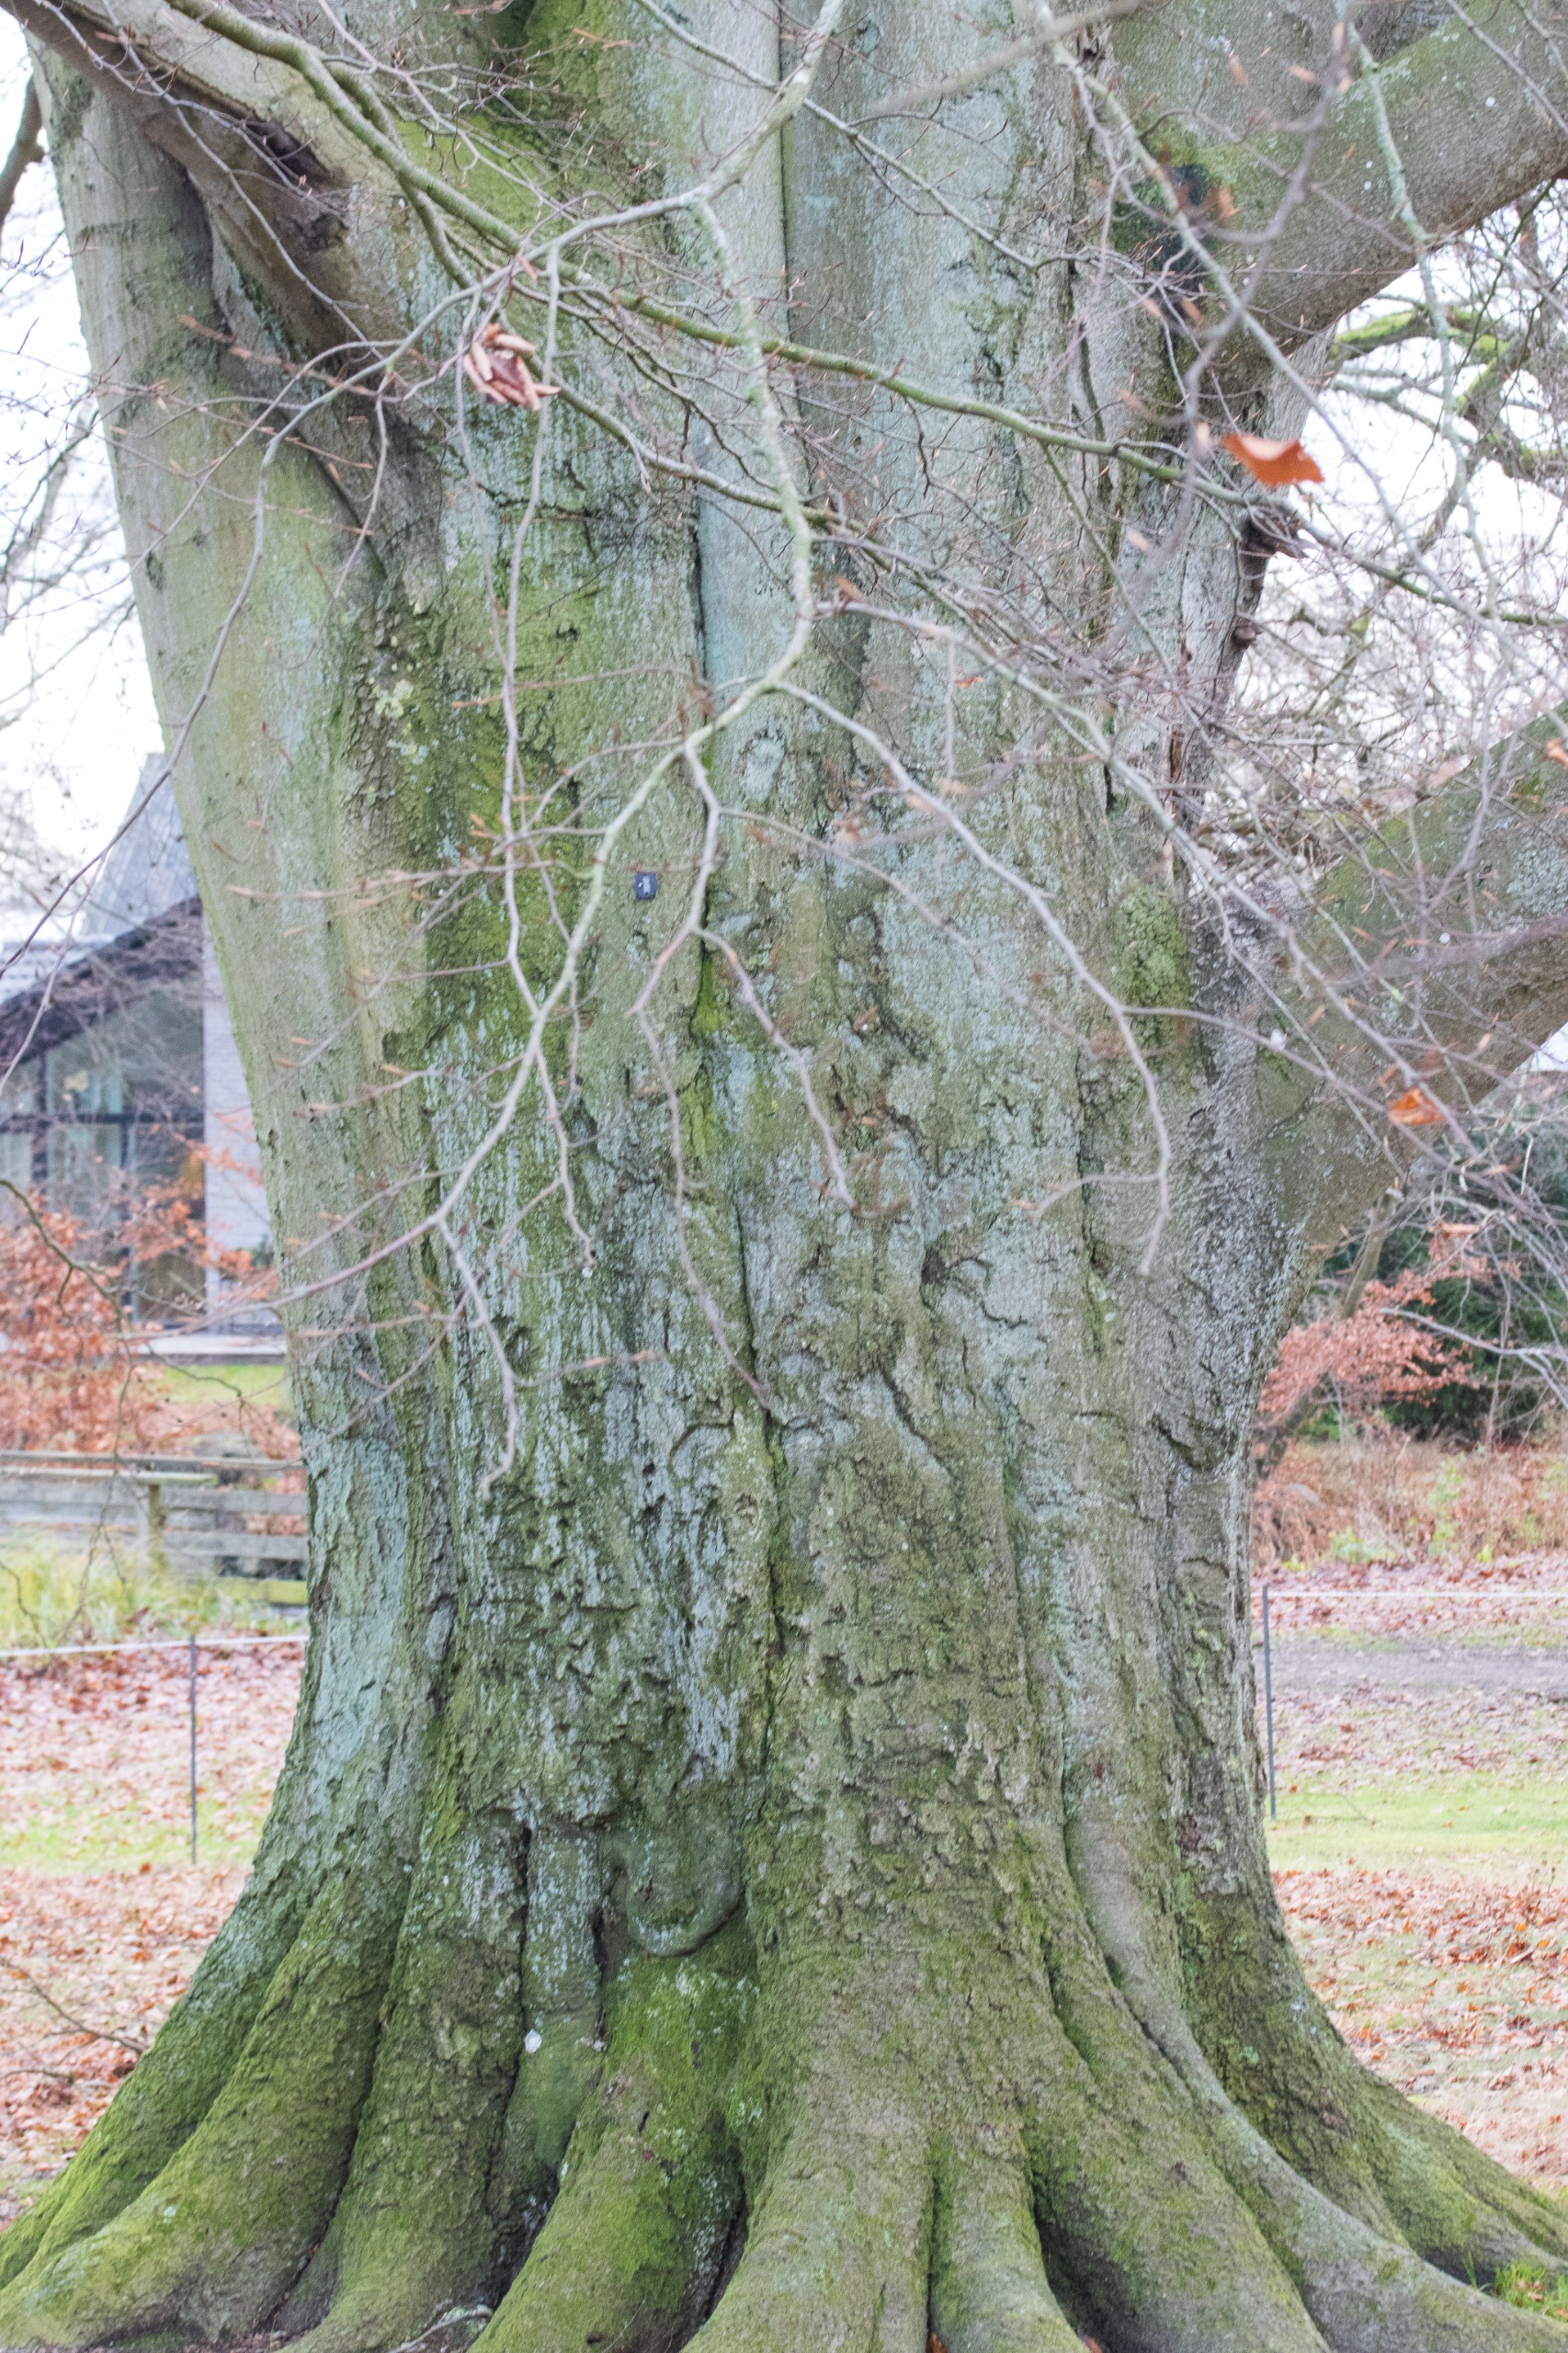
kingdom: Plantae
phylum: Tracheophyta
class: Magnoliopsida
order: Fagales
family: Fagaceae
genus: Fagus
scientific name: Fagus sylvatica
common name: Bøg
